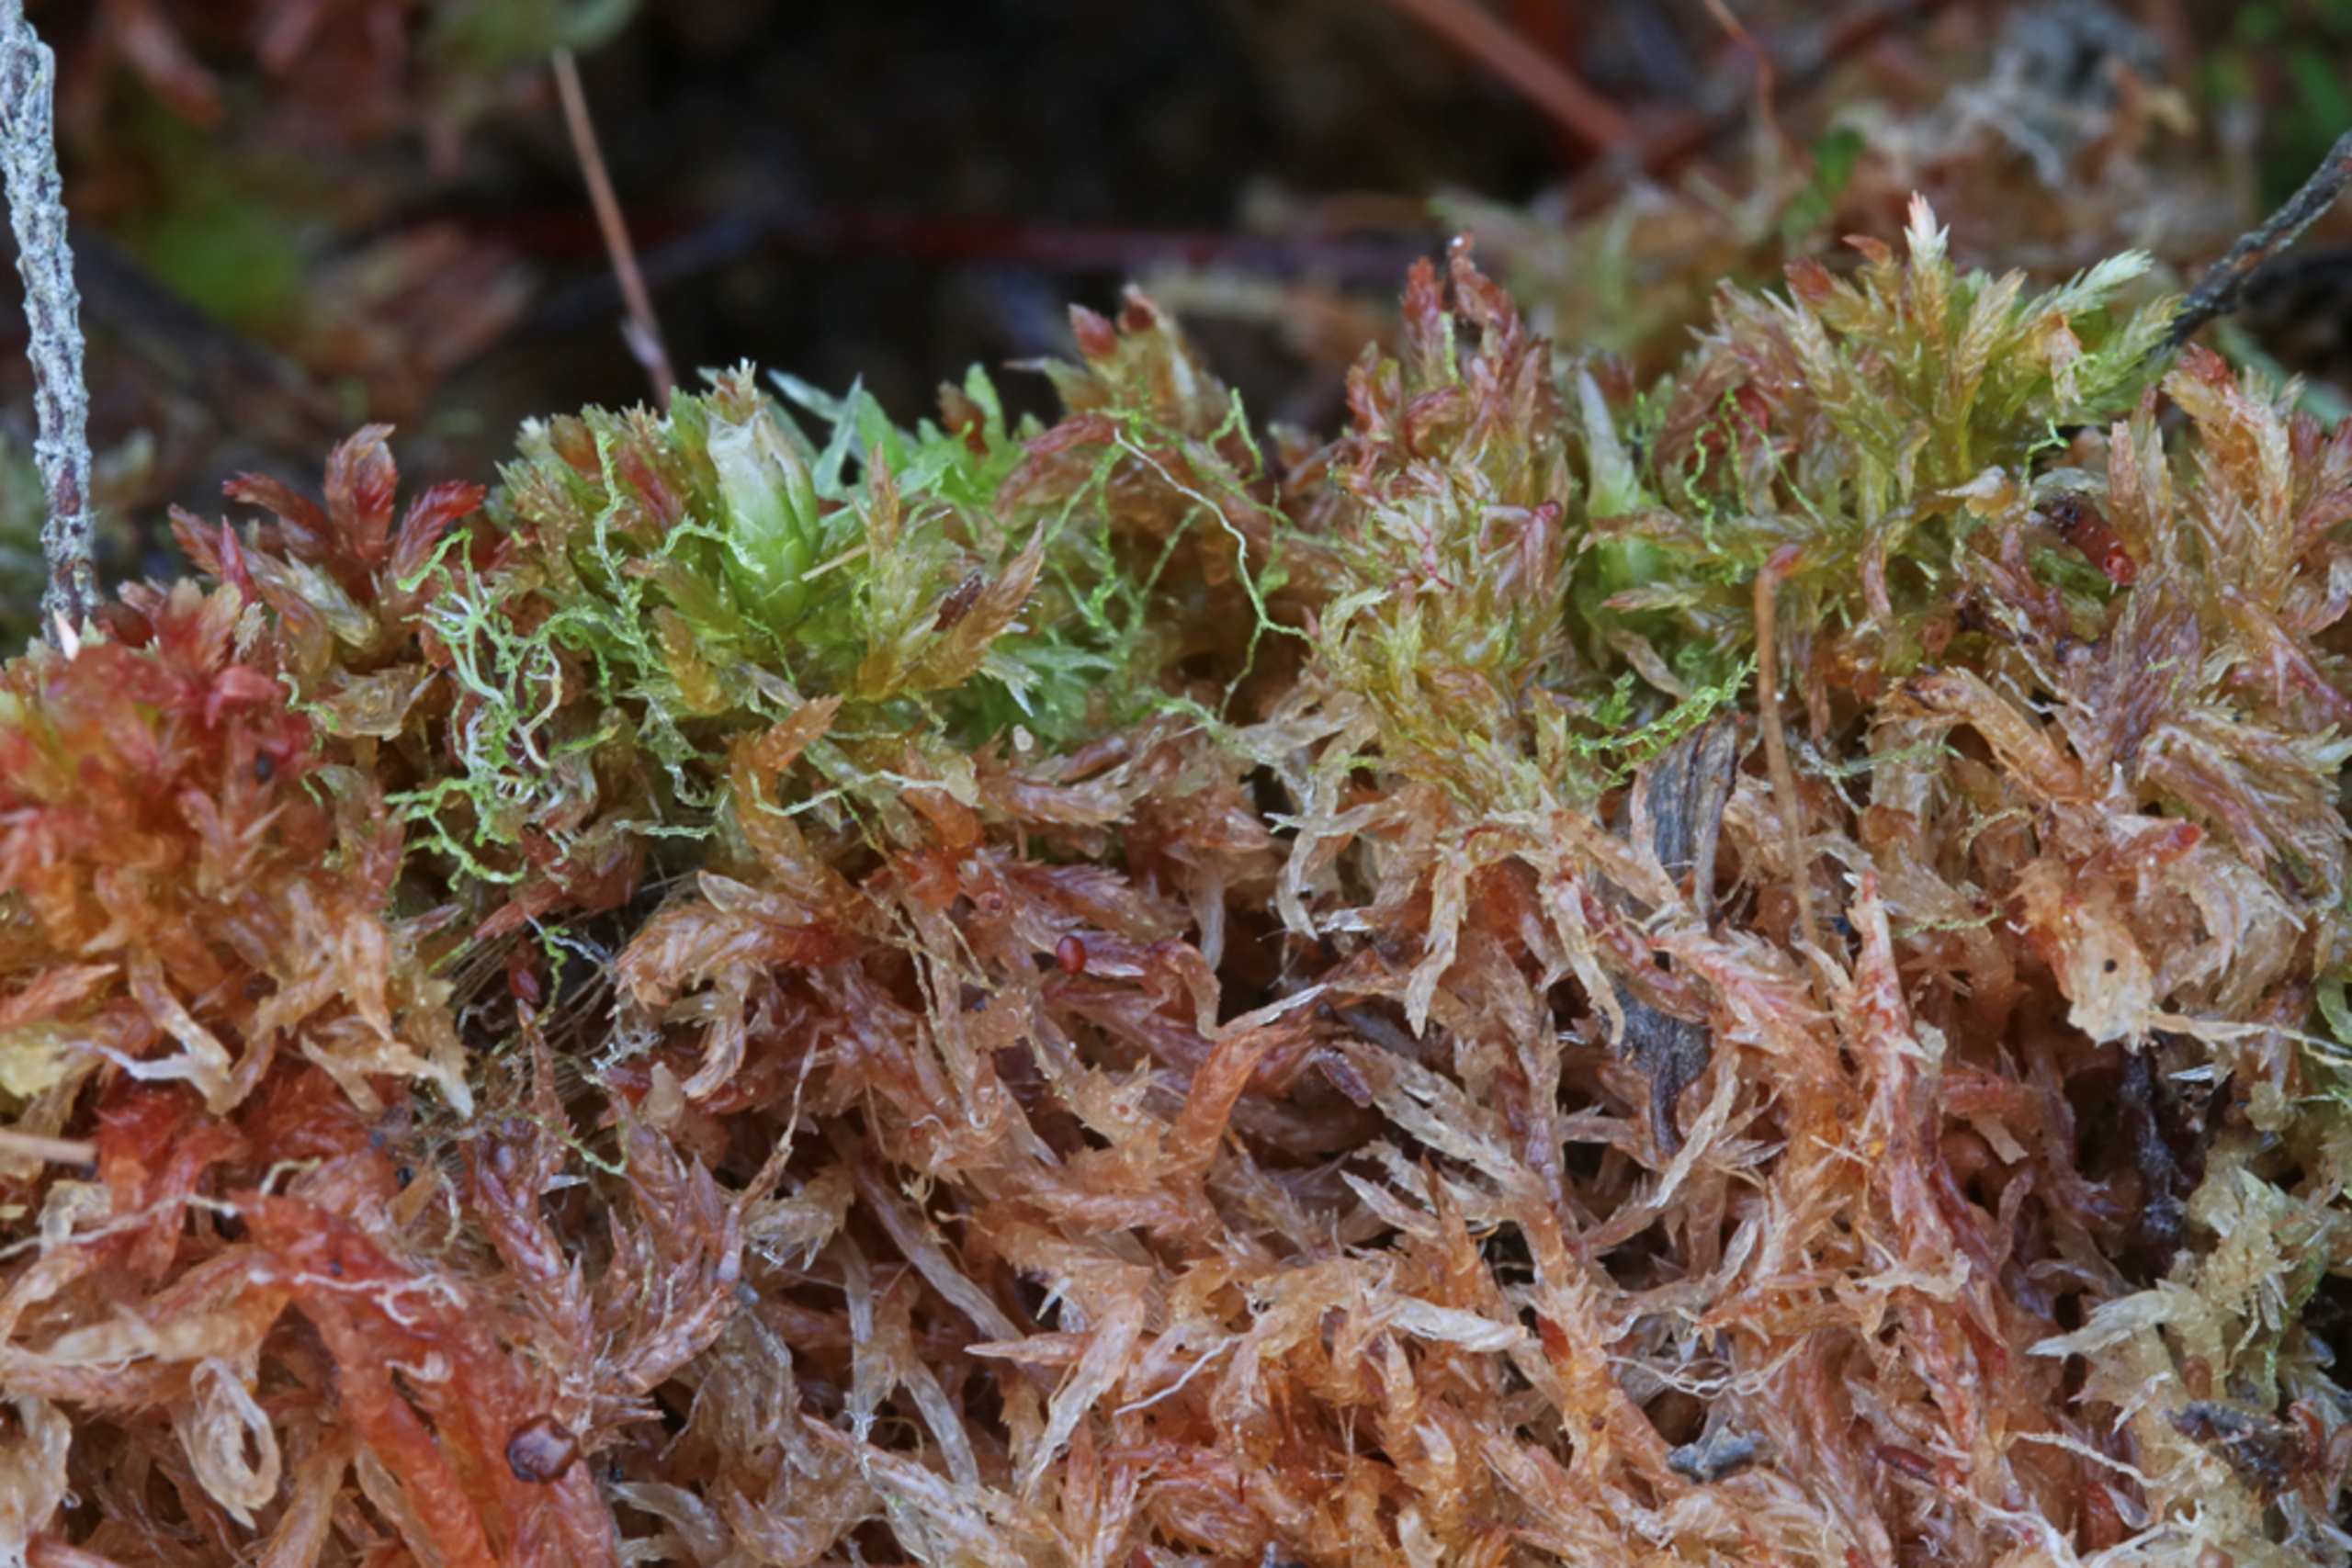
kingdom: Plantae
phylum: Marchantiophyta
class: Jungermanniopsida
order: Jungermanniales
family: Cephaloziellaceae
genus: Cephaloziella
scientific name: Cephaloziella elachista
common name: Liden dværgtråd
